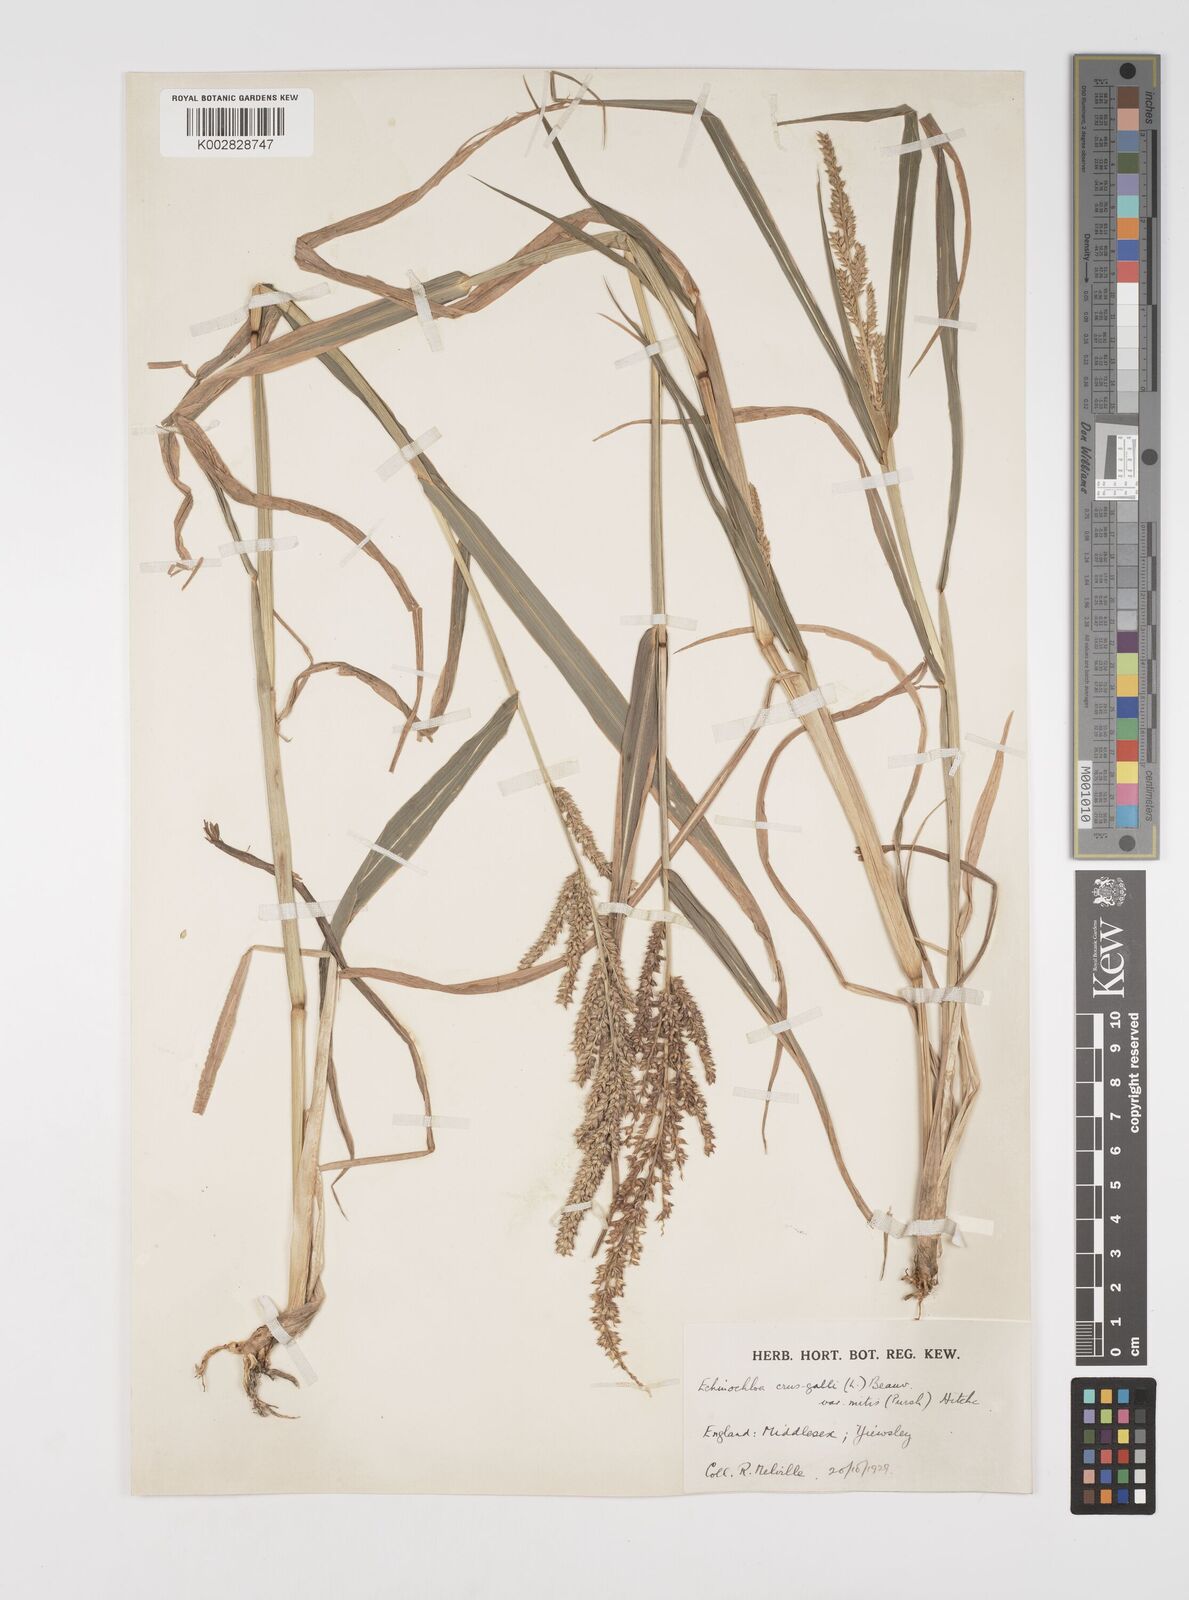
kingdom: Plantae
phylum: Tracheophyta
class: Liliopsida
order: Poales
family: Poaceae
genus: Echinochloa
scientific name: Echinochloa crus-galli
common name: Cockspur
